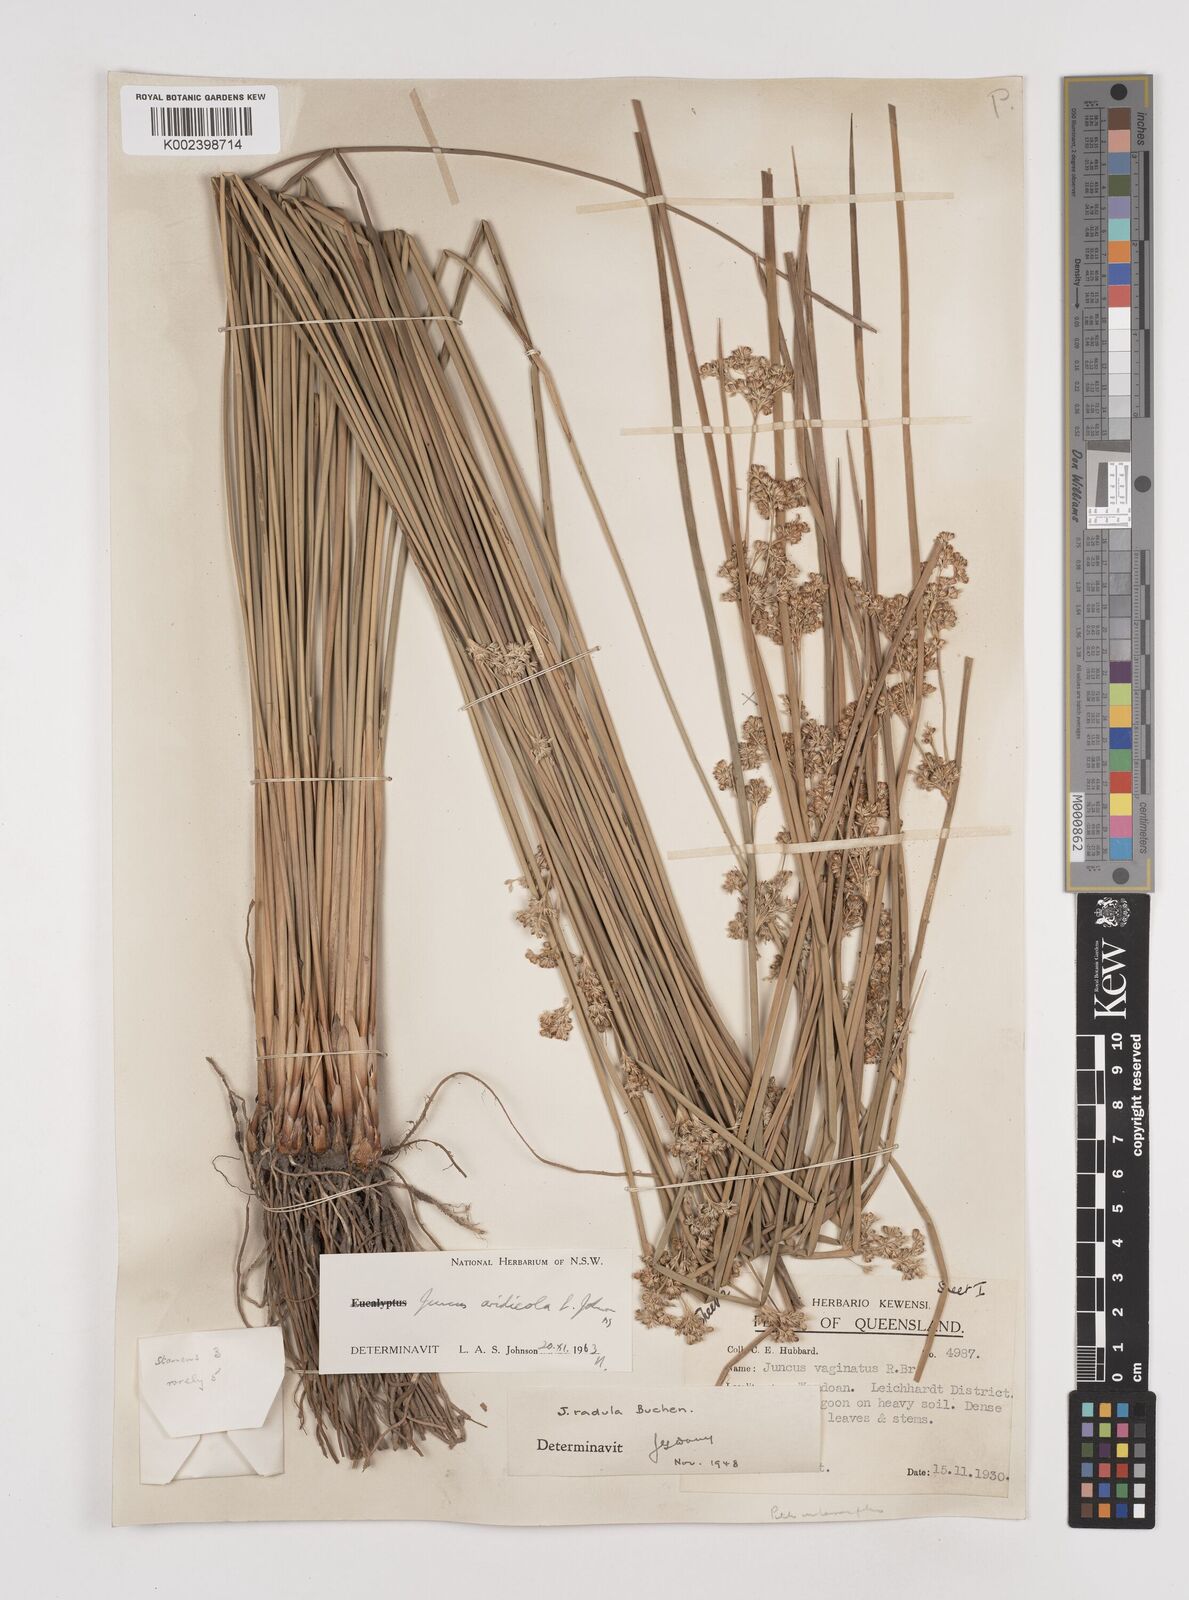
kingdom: Plantae
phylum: Tracheophyta
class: Liliopsida
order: Poales
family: Juncaceae
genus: Juncus
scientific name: Juncus aridicola
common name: Tussock rush
